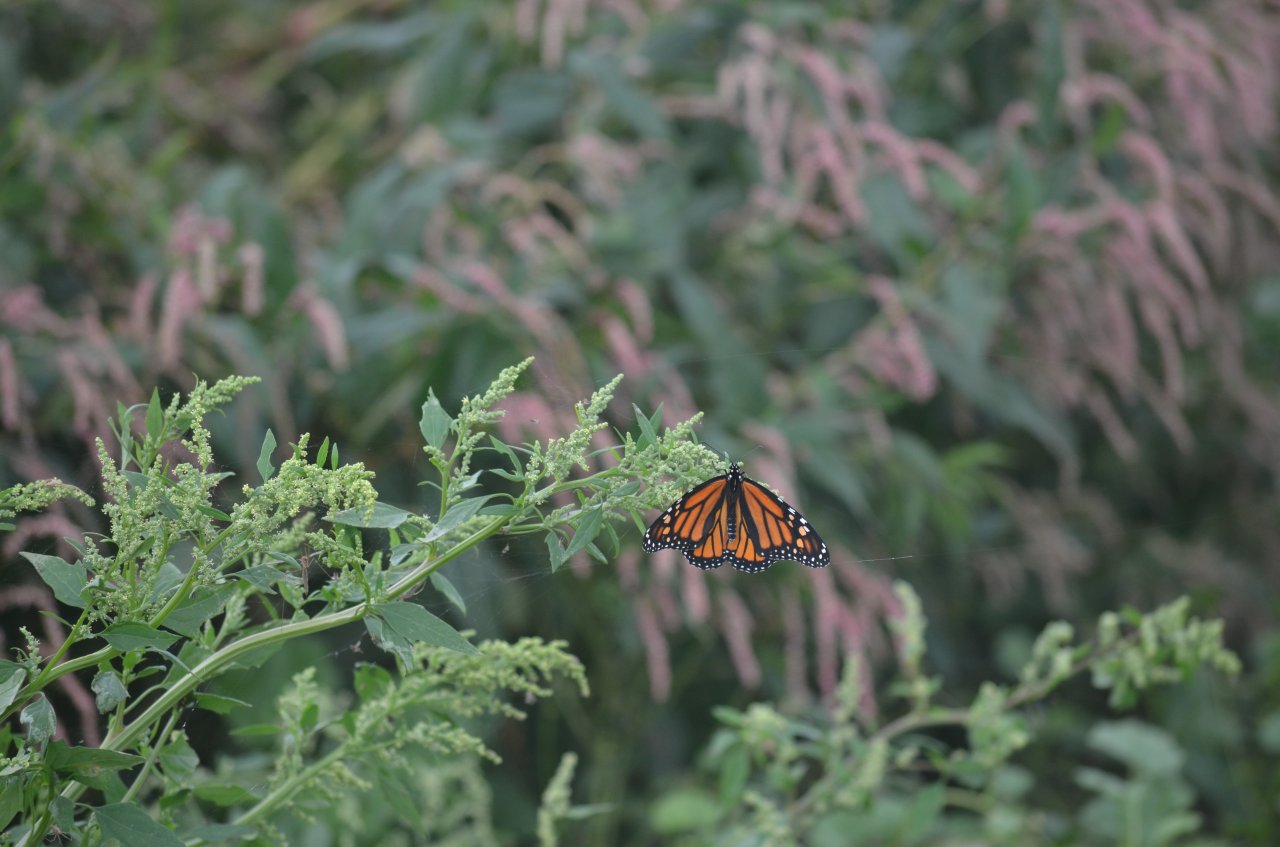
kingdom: Animalia
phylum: Arthropoda
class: Insecta
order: Lepidoptera
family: Nymphalidae
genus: Danaus
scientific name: Danaus plexippus
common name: Monarch
